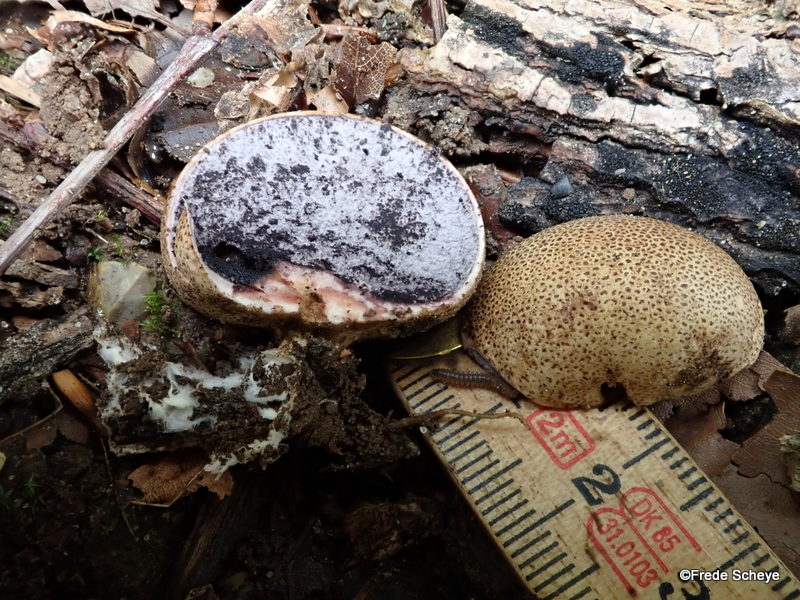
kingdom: Fungi
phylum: Basidiomycota
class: Agaricomycetes
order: Boletales
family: Sclerodermataceae
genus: Scleroderma
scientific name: Scleroderma
